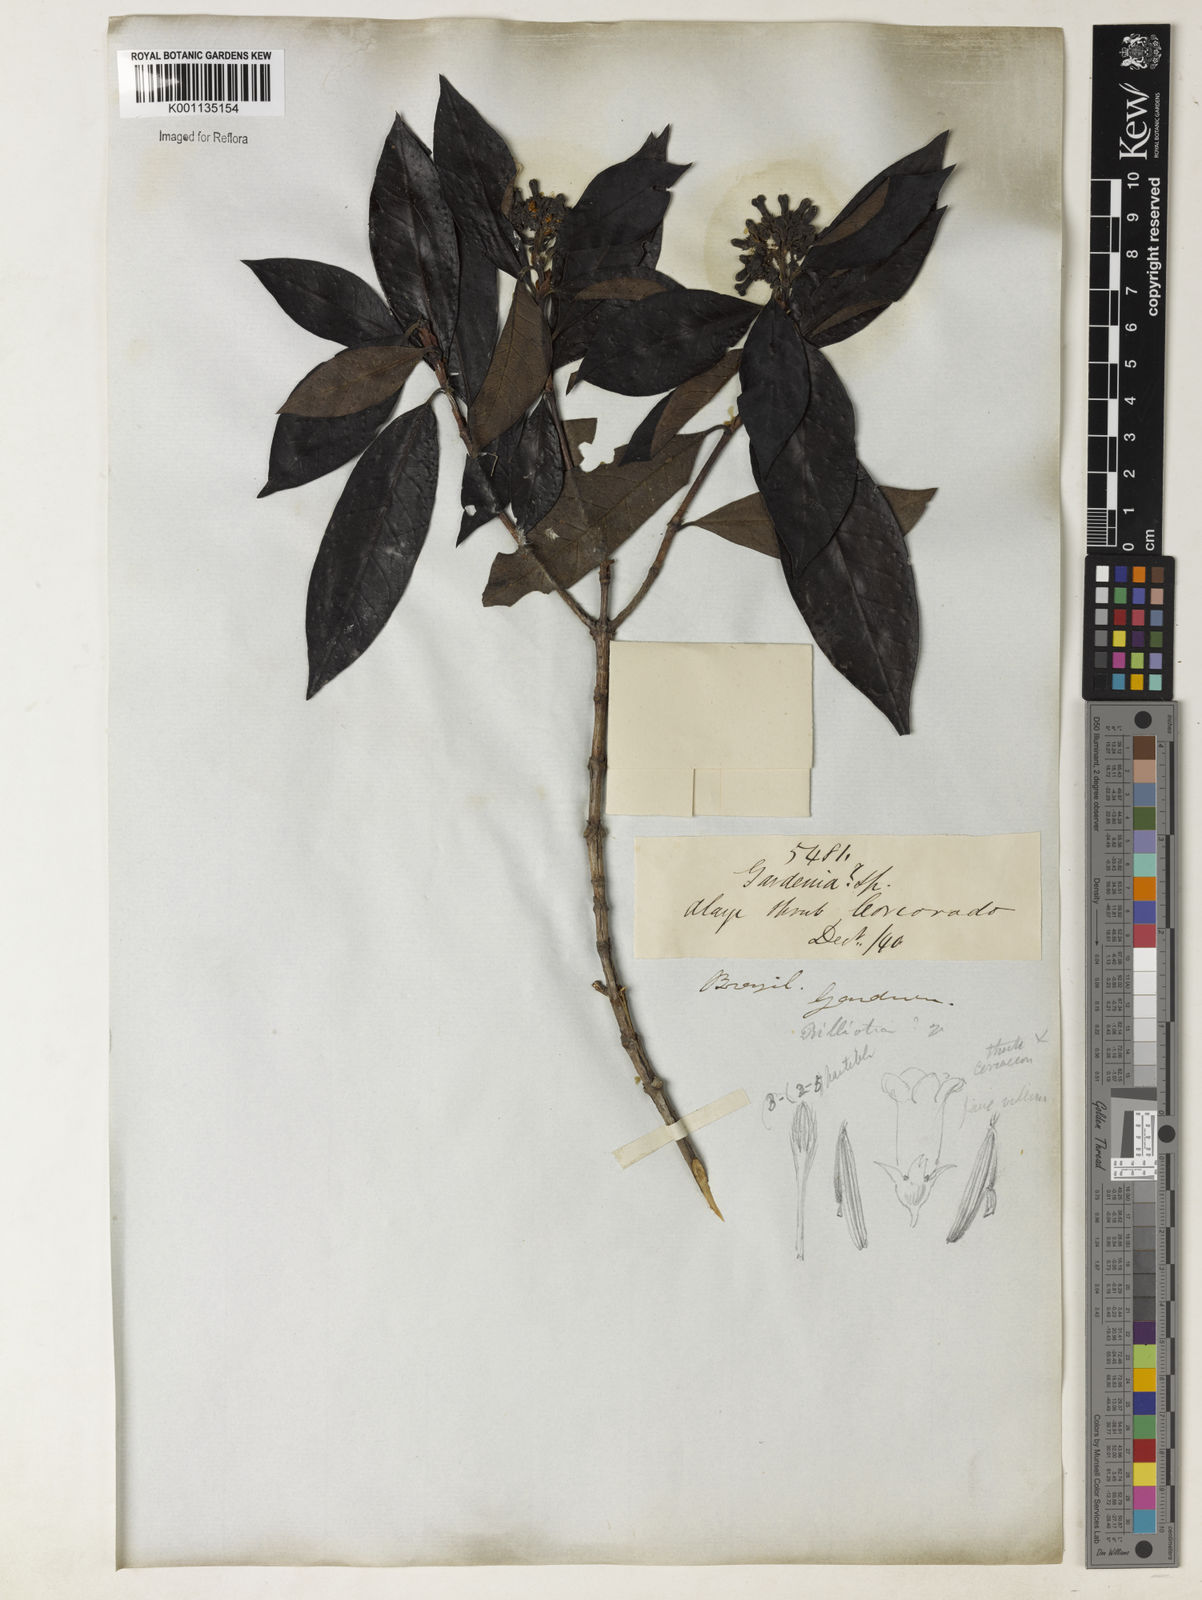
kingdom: Plantae
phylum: Tracheophyta
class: Magnoliopsida
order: Gentianales
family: Rubiaceae
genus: Melanopsidium
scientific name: Melanopsidium nigrum
